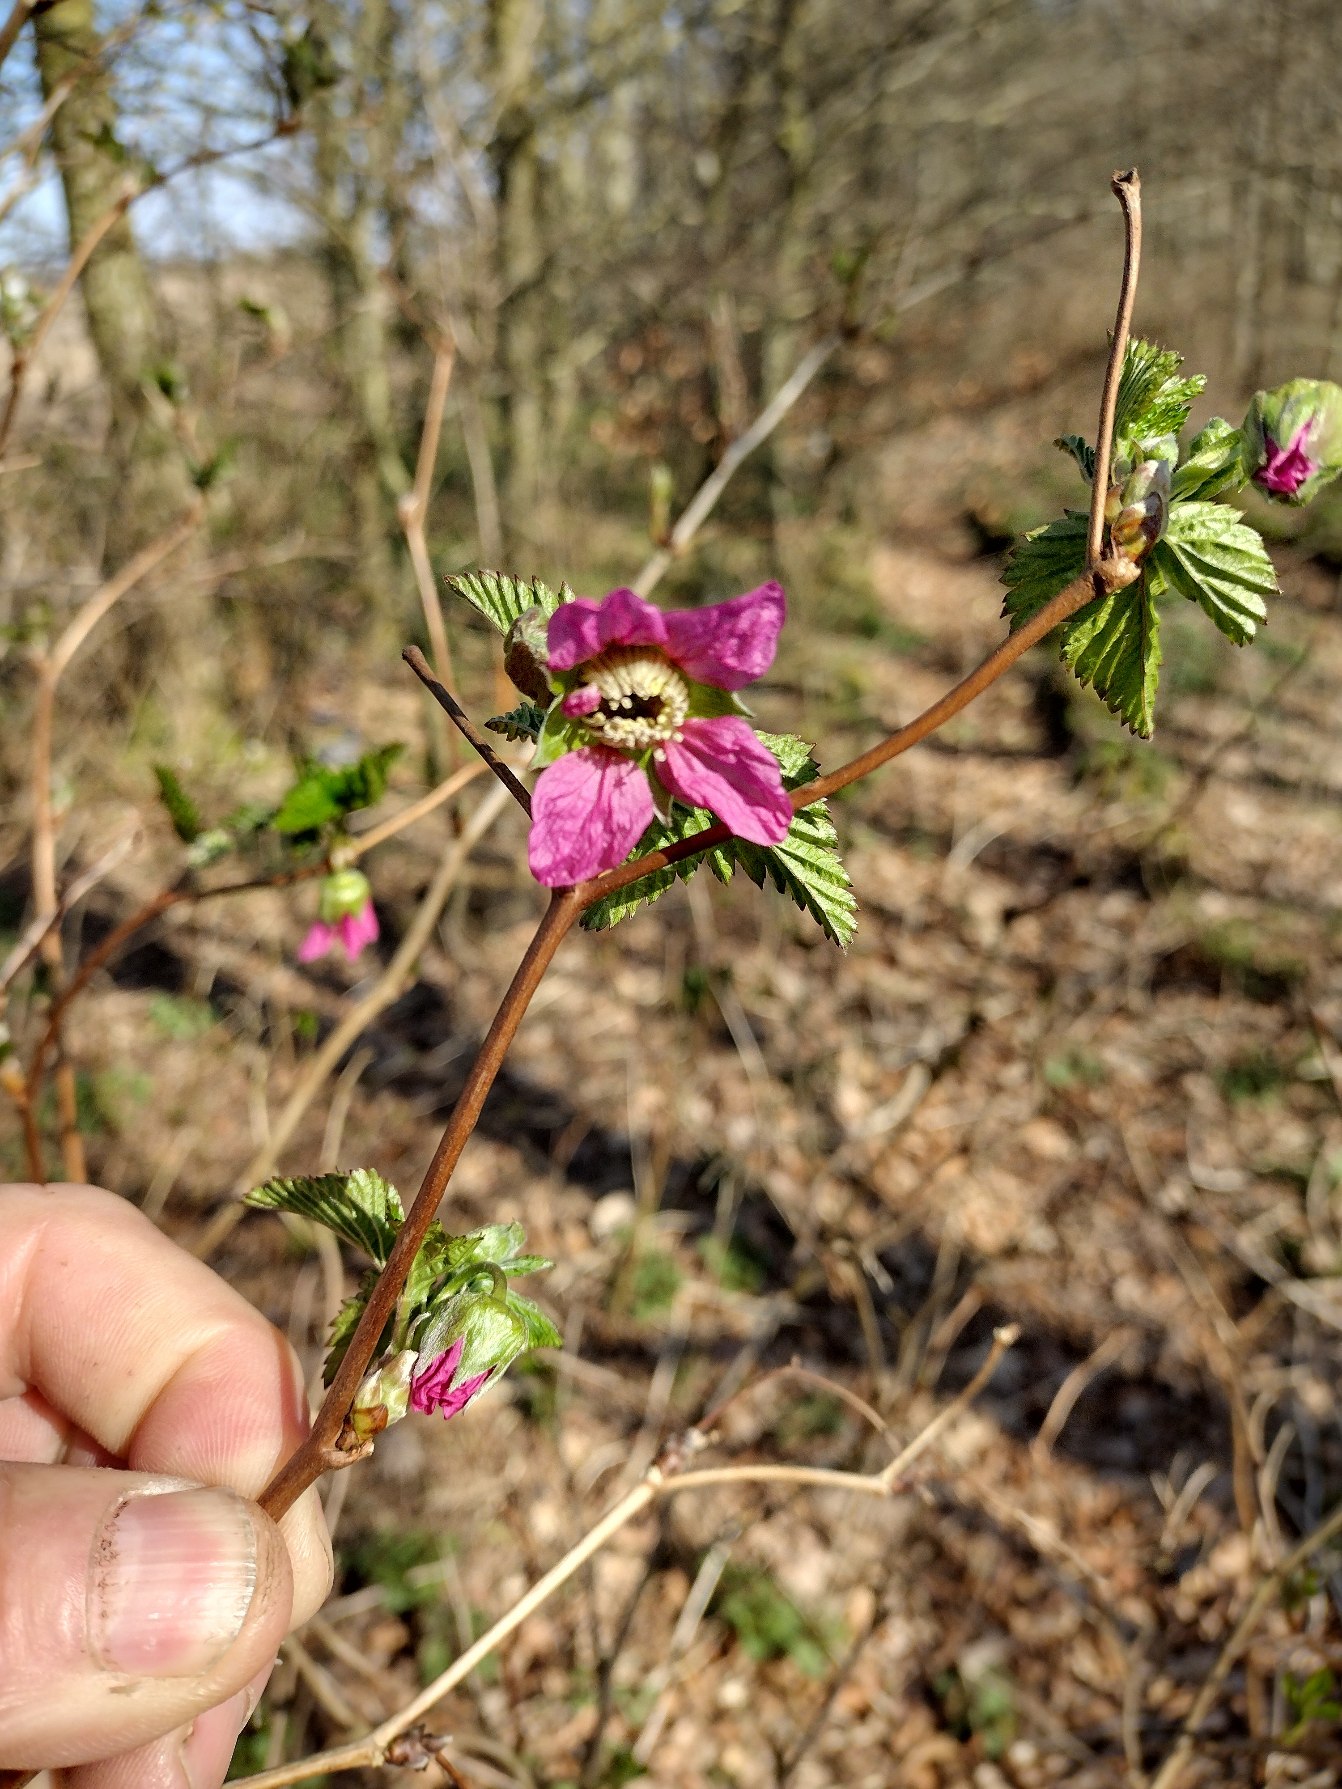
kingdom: Plantae
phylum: Tracheophyta
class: Magnoliopsida
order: Rosales
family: Rosaceae
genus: Rubus
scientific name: Rubus spectabilis
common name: Laksebær
